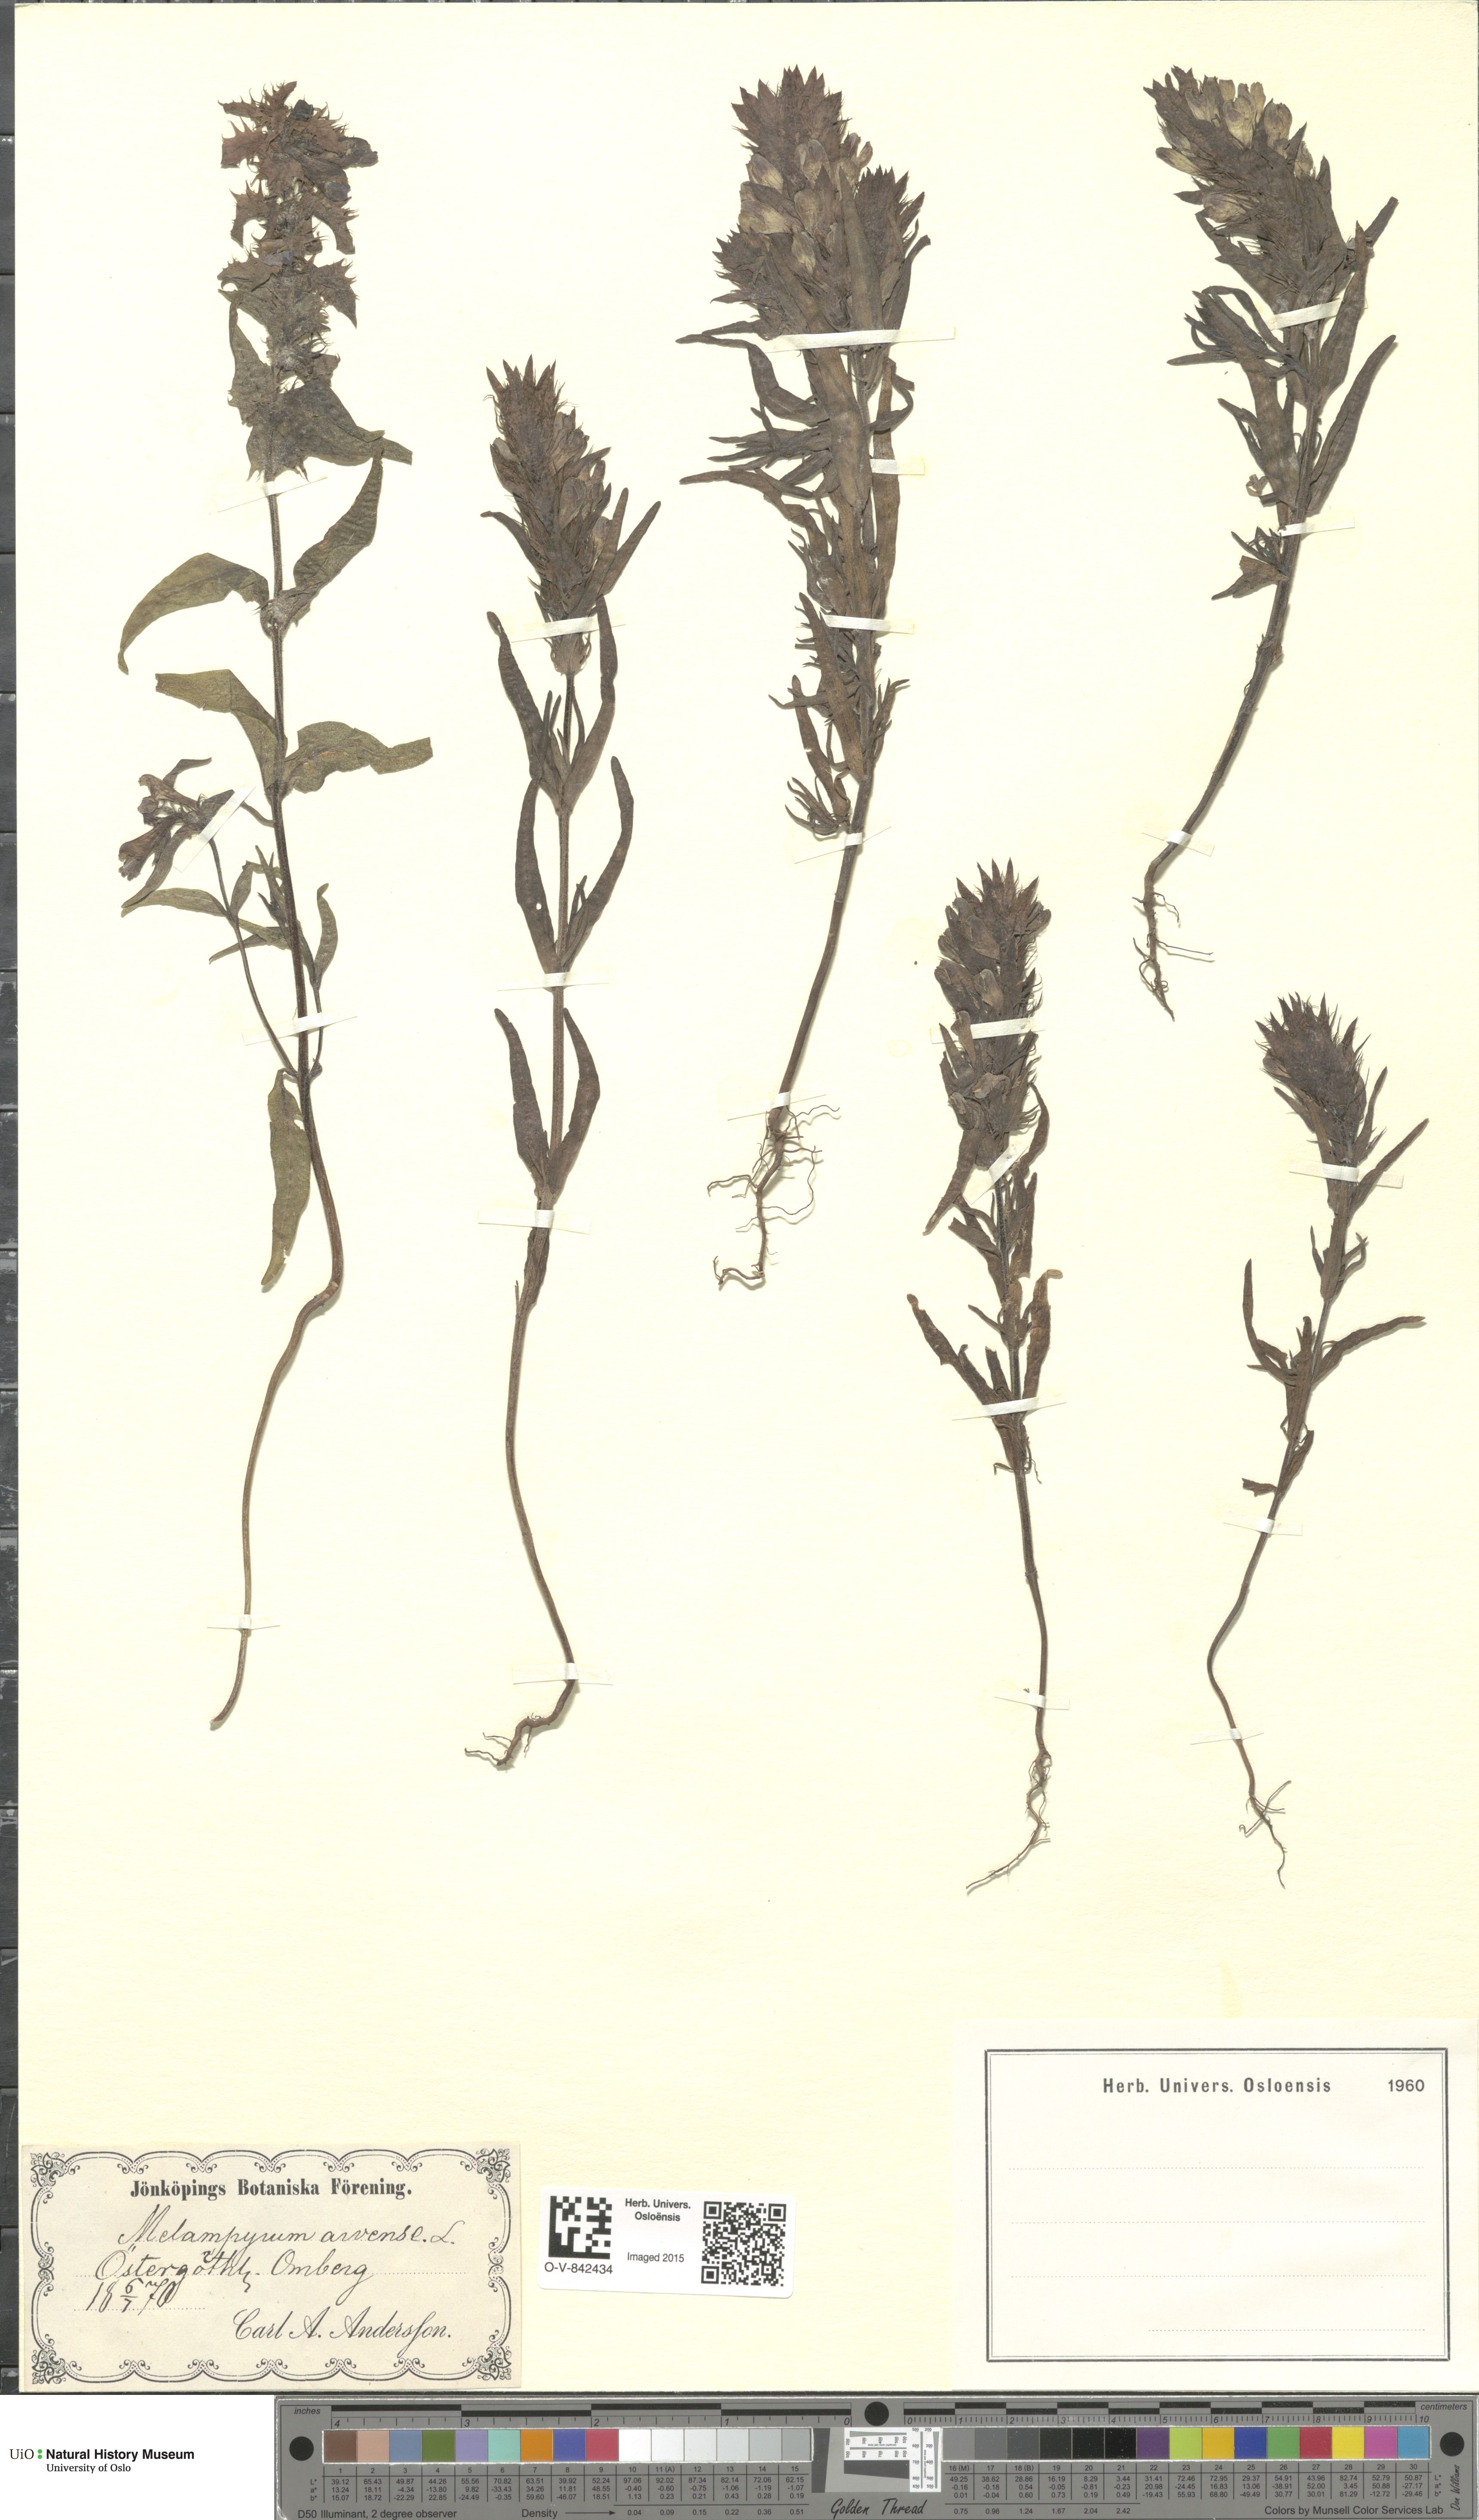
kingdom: Plantae
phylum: Tracheophyta
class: Magnoliopsida
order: Lamiales
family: Orobanchaceae
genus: Melampyrum
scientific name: Melampyrum arvense
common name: Field cow-wheat
